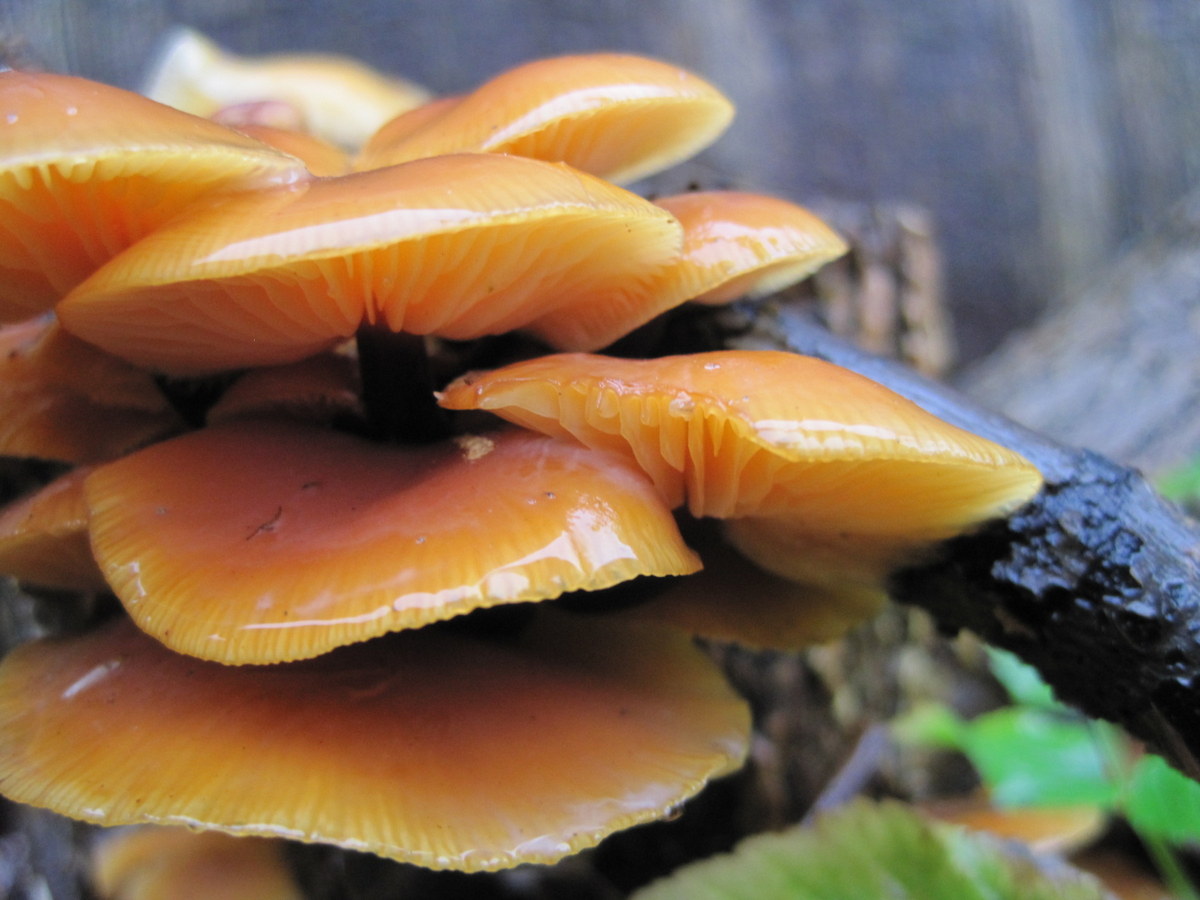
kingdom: Fungi
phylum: Basidiomycota
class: Agaricomycetes
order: Agaricales
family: Physalacriaceae
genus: Flammulina
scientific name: Flammulina velutipes
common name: gul fløjlsfod
